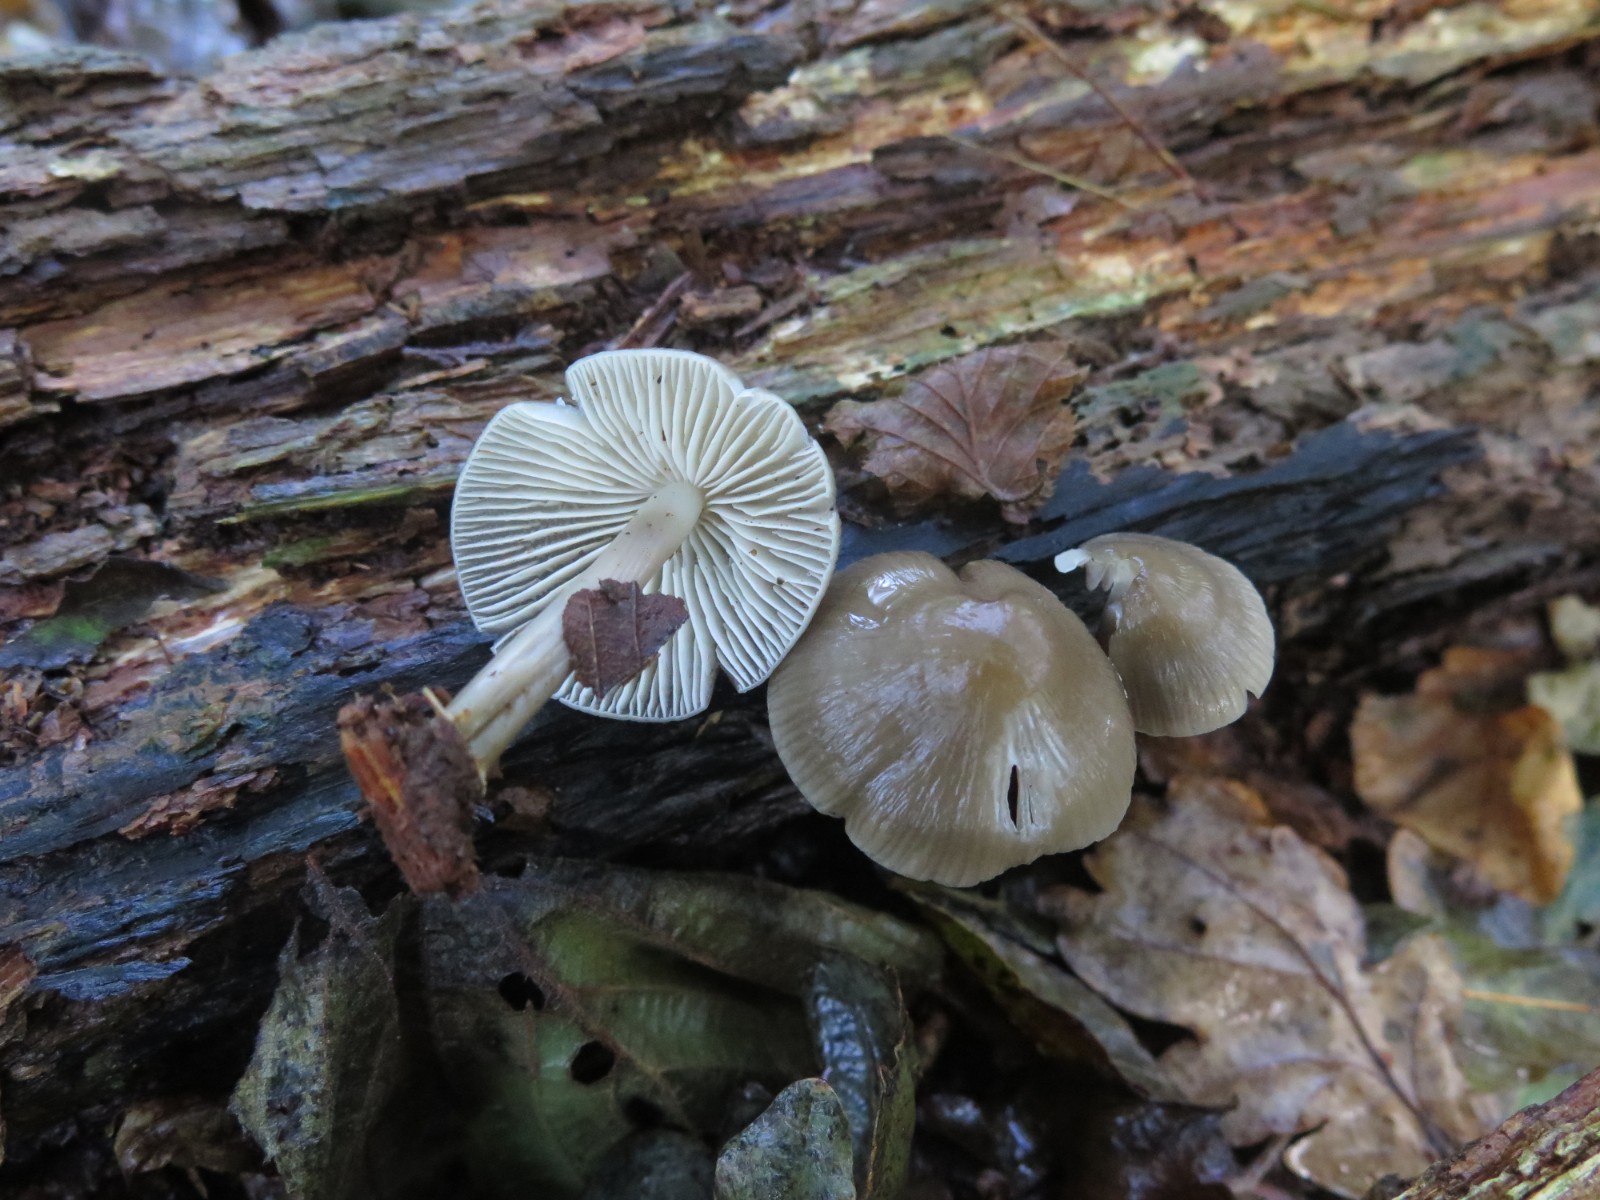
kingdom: Fungi
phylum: Basidiomycota
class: Agaricomycetes
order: Agaricales
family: Mycenaceae
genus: Mycena
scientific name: Mycena galericulata
